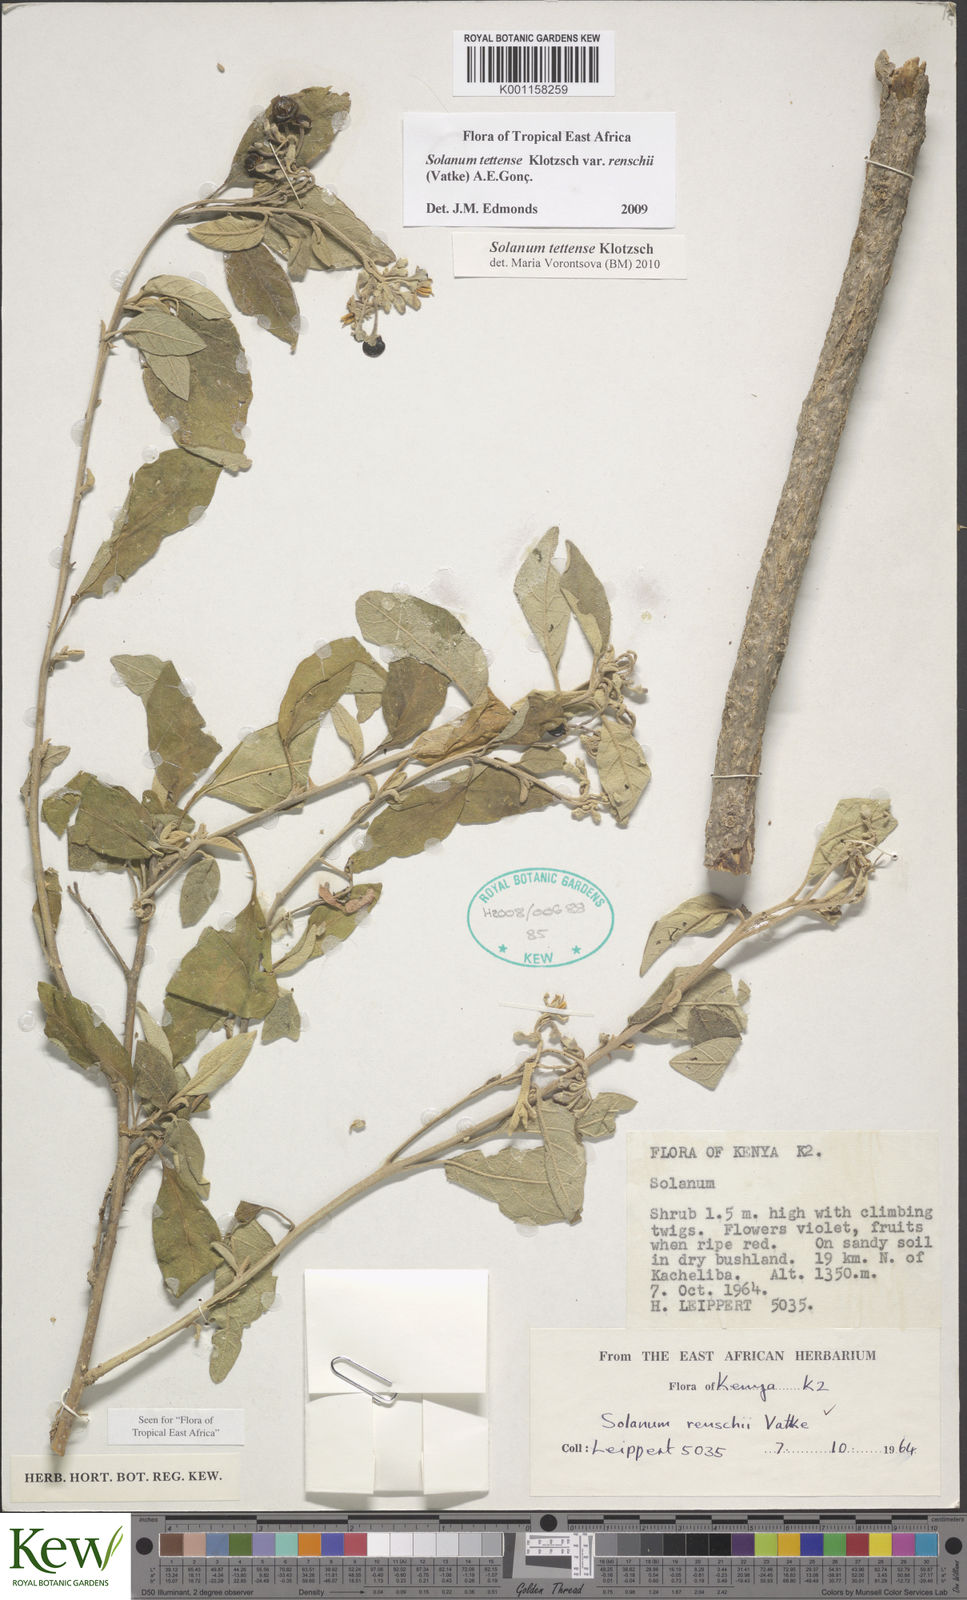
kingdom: Plantae
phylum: Tracheophyta
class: Magnoliopsida
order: Solanales
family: Solanaceae
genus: Solanum
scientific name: Solanum tettense
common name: Mozambique bitter apple
